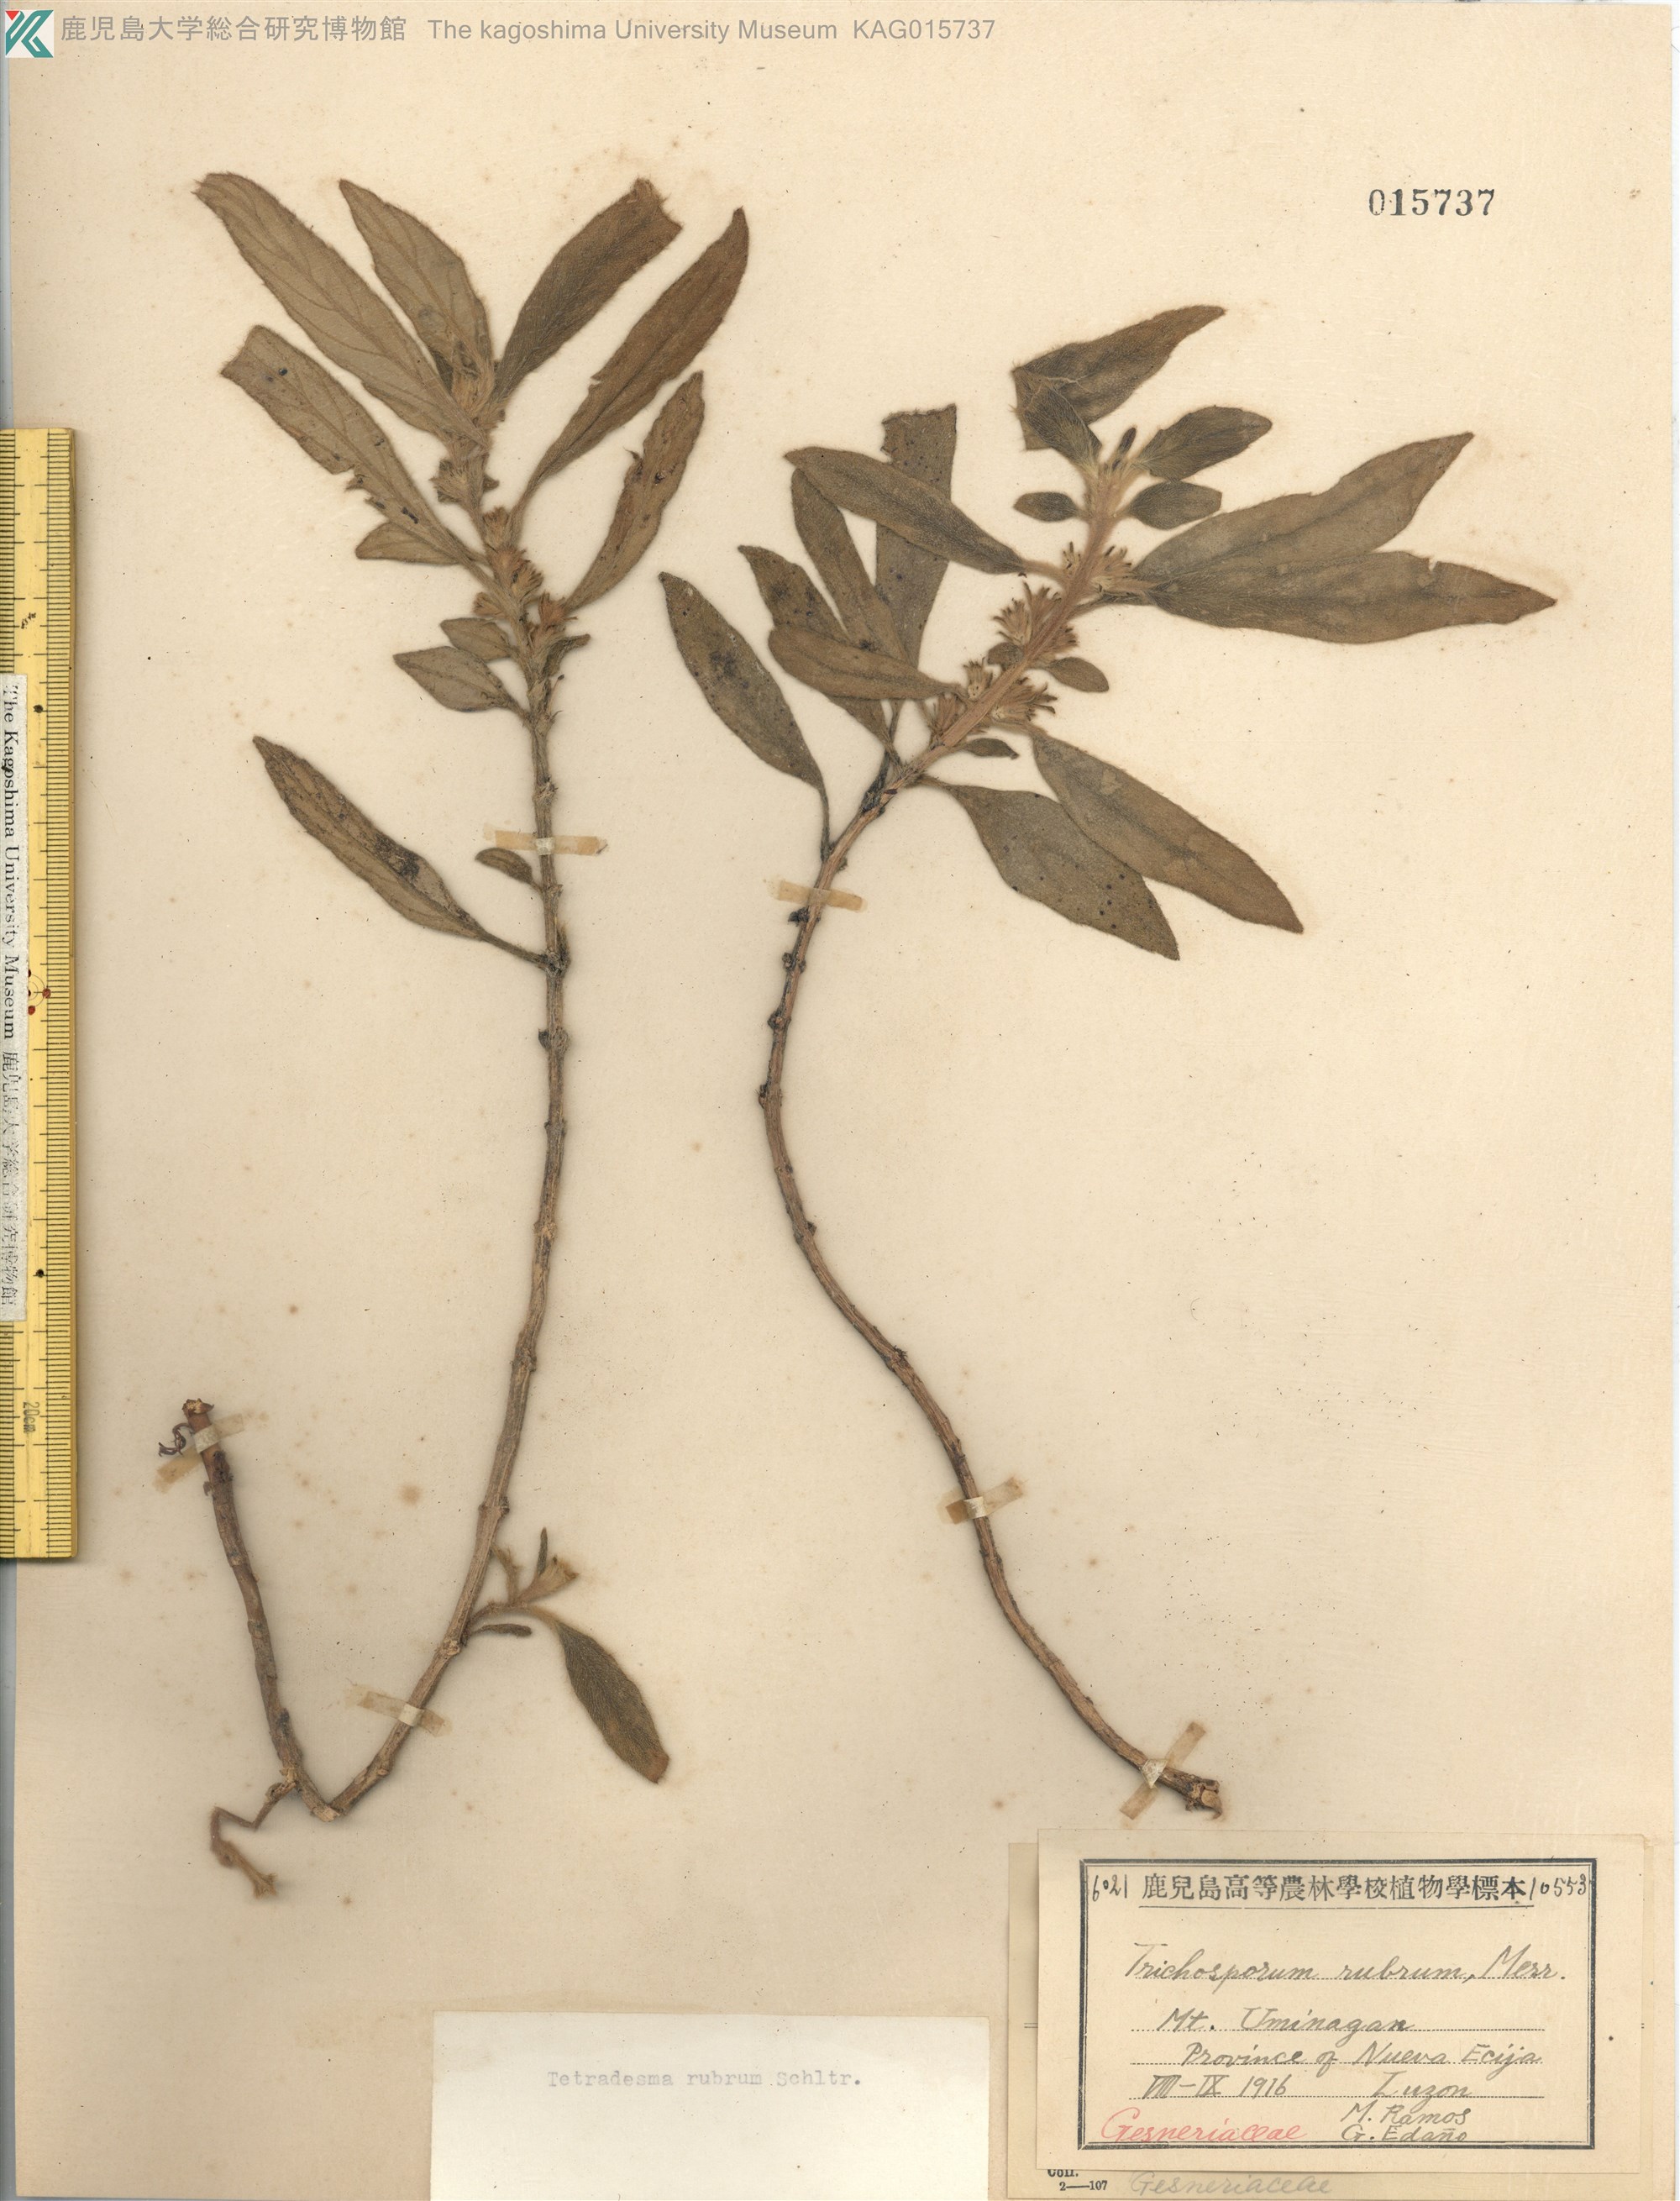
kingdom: Plantae
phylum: Tracheophyta
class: Magnoliopsida
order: Lamiales
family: Gesneriaceae
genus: Agalmyla
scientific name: Agalmyla rubra
